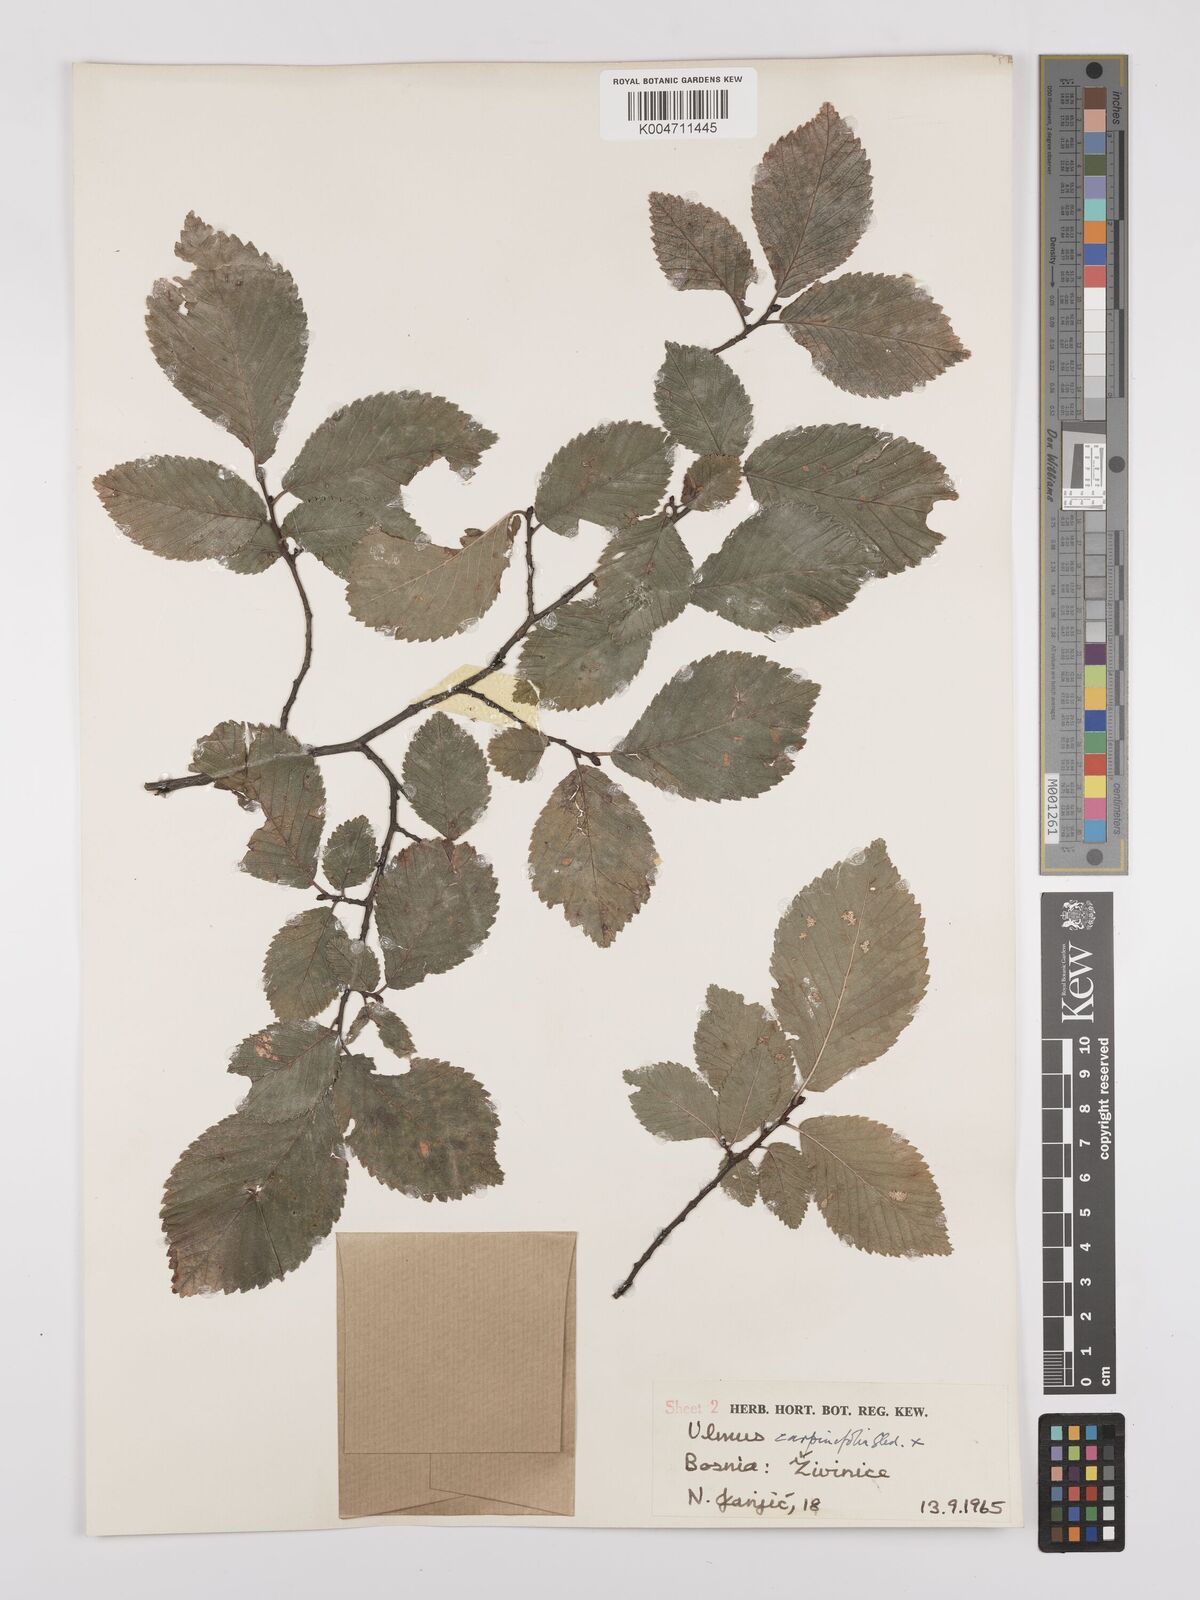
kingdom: Plantae
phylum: Tracheophyta
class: Magnoliopsida
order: Rosales
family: Ulmaceae
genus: Ulmus
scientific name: Ulmus minor
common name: Small-leaved elm
